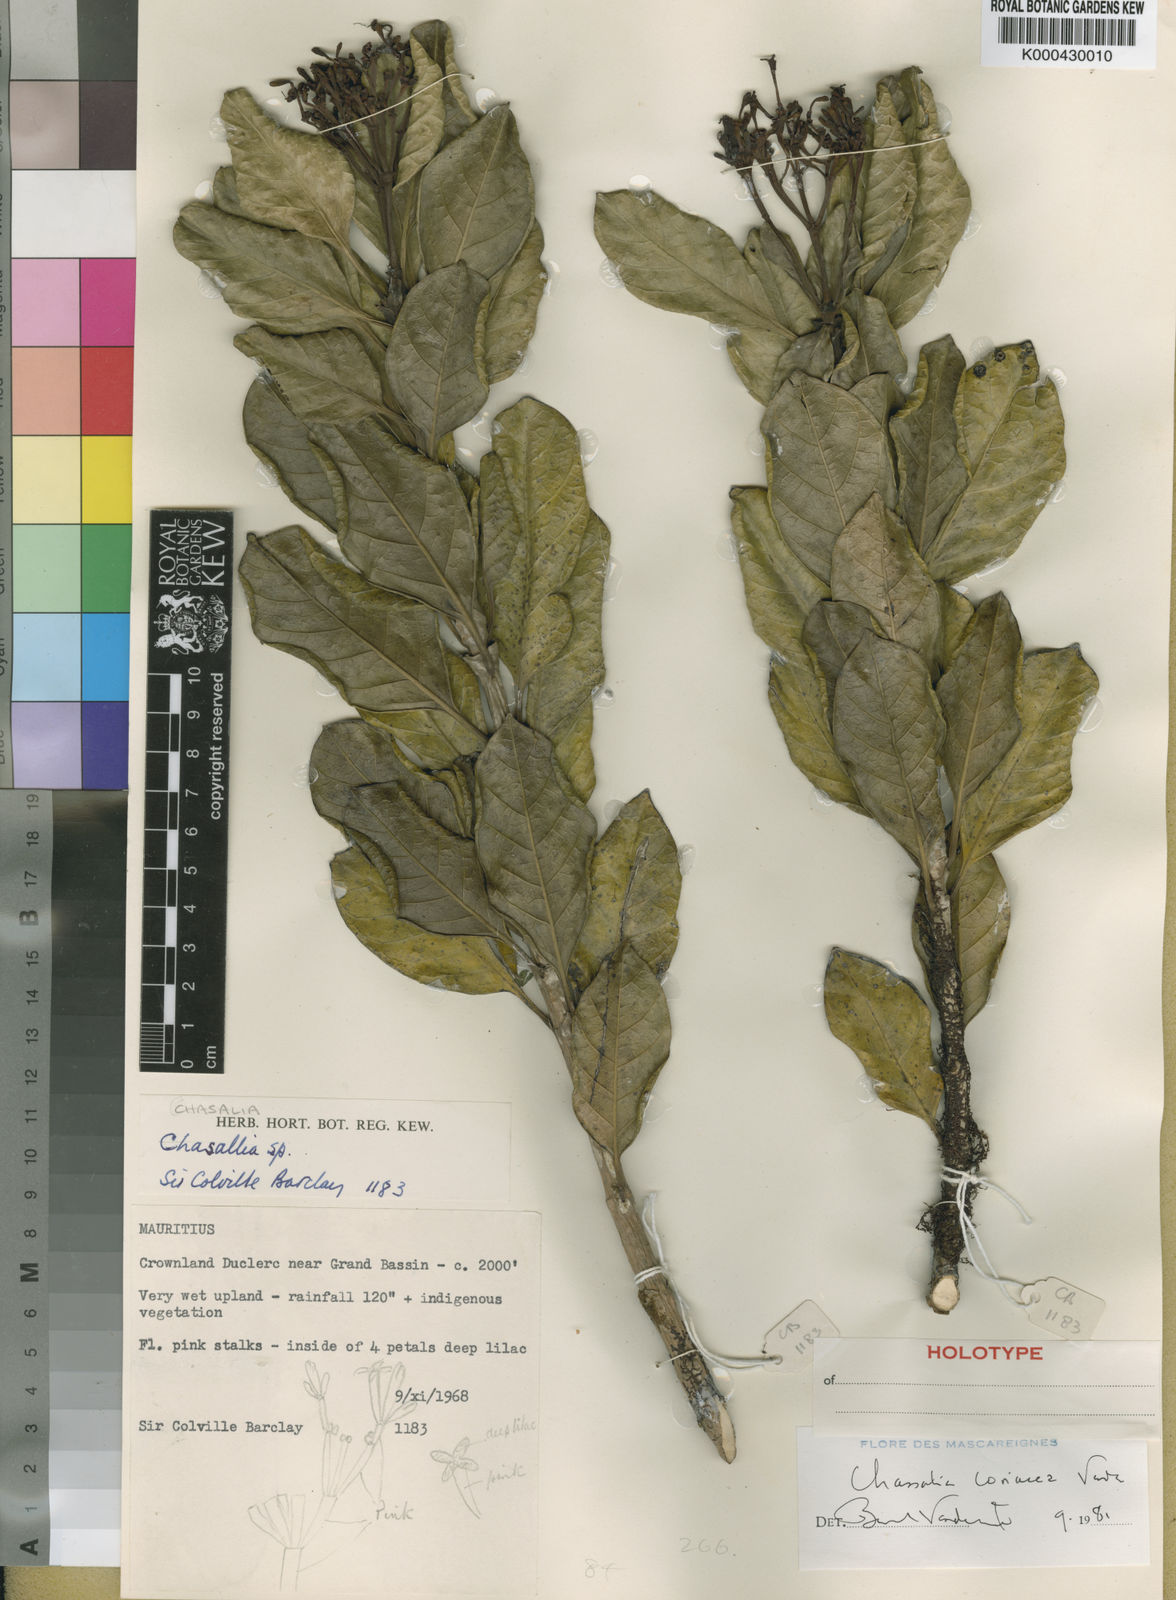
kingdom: Plantae
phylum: Tracheophyta
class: Magnoliopsida
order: Gentianales
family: Rubiaceae
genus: Chassalia
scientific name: Chassalia coriacea
